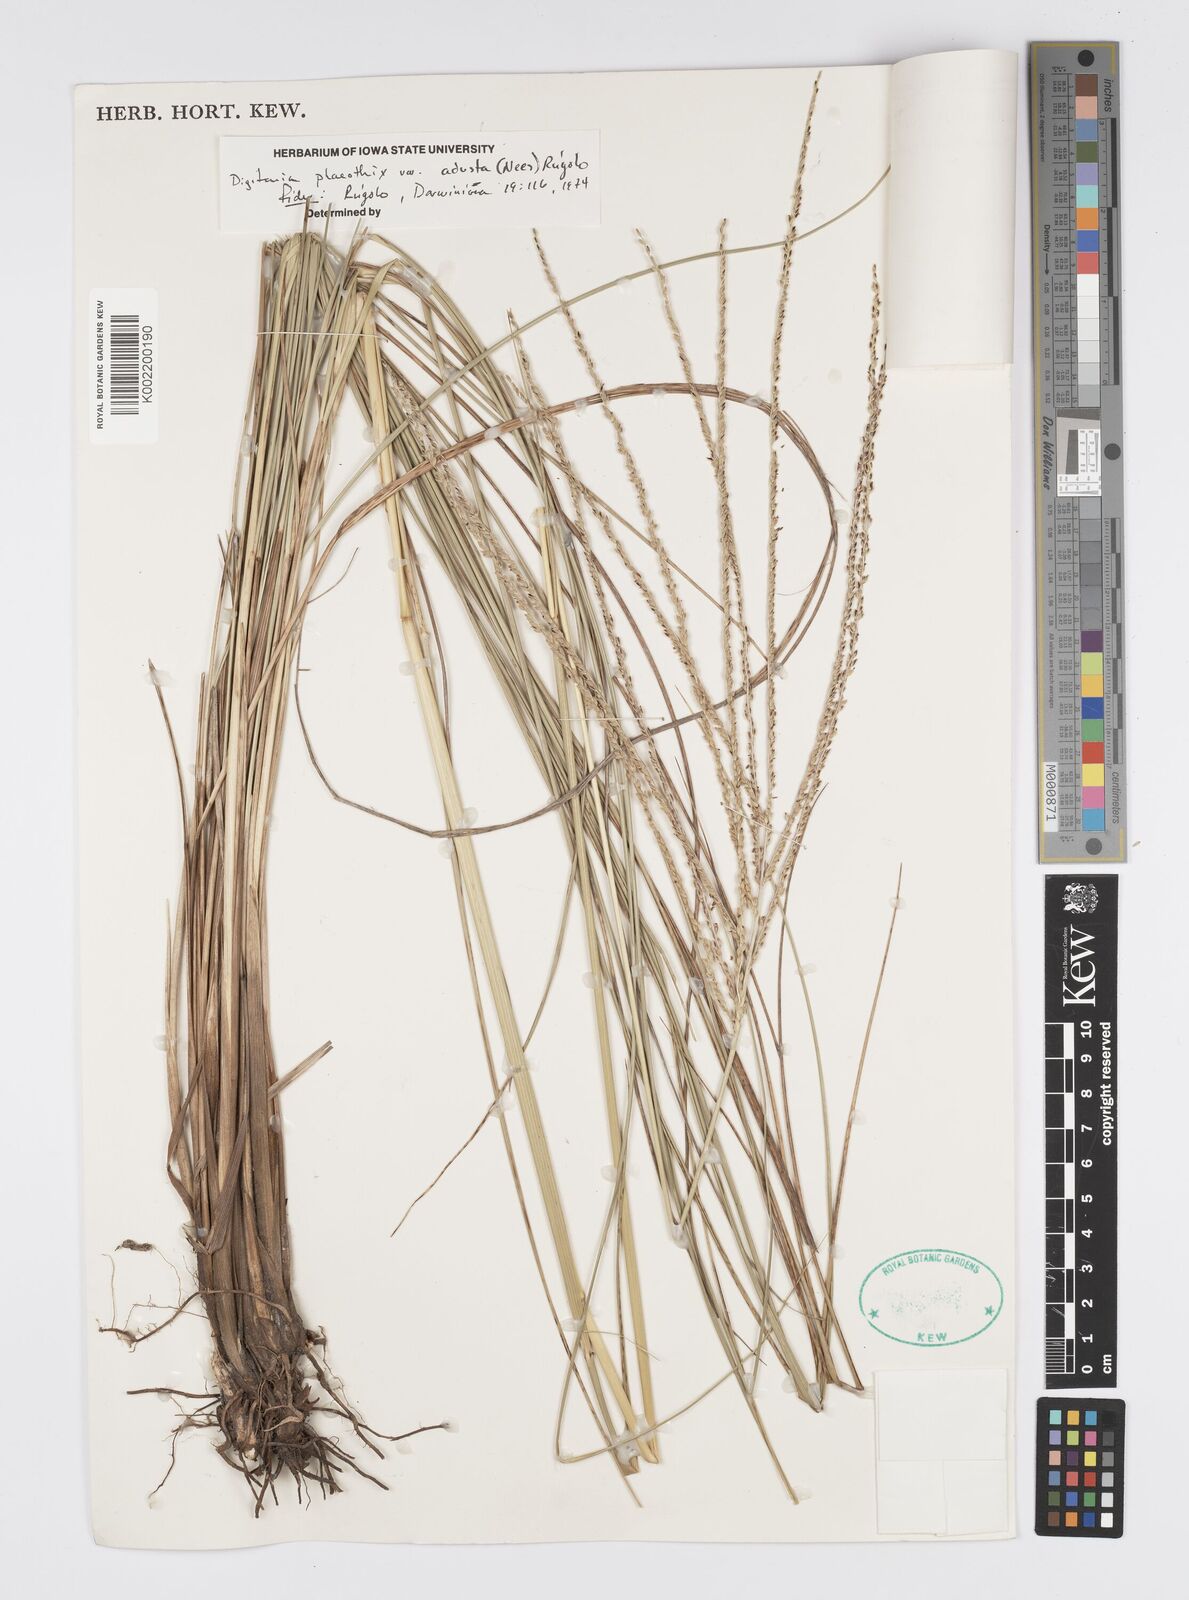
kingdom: Plantae
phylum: Tracheophyta
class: Liliopsida
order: Poales
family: Poaceae
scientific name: Poaceae
